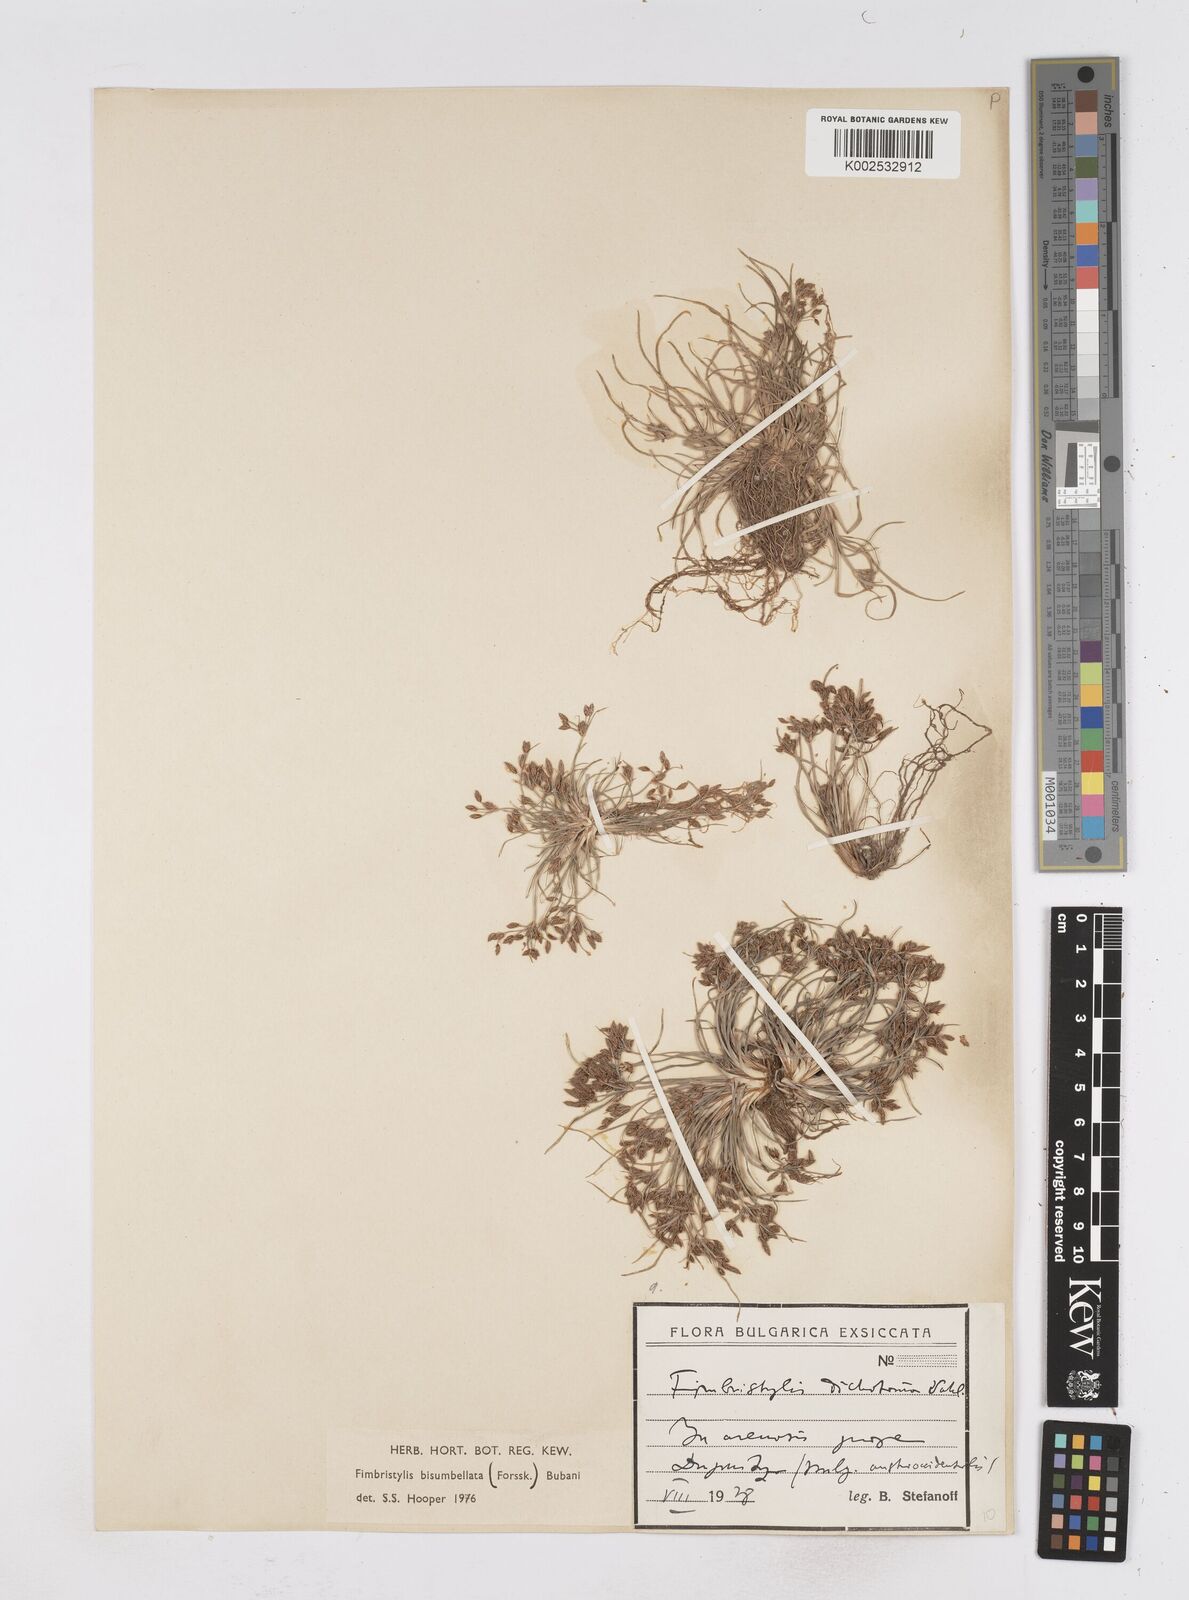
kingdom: Plantae
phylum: Tracheophyta
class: Liliopsida
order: Poales
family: Cyperaceae
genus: Fimbristylis
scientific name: Fimbristylis bisumbellata
